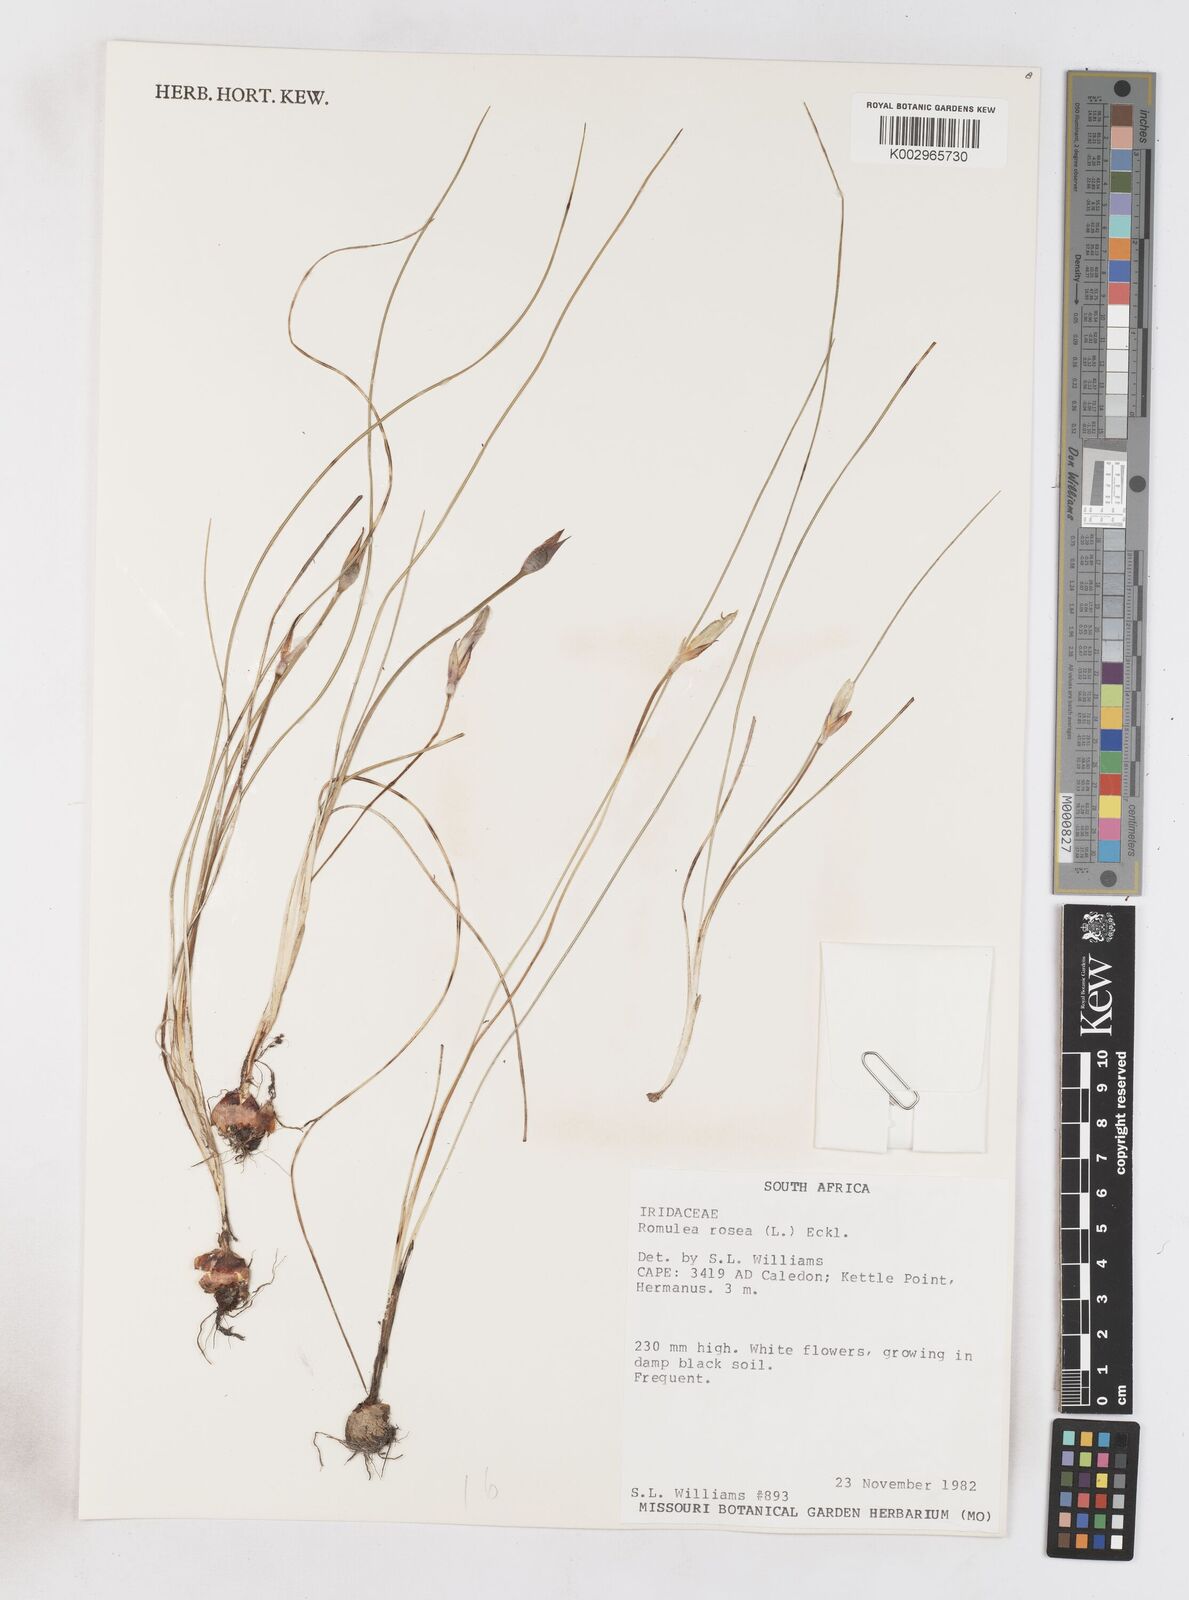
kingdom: Plantae
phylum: Tracheophyta
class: Liliopsida
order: Asparagales
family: Iridaceae
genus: Romulea
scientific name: Romulea rosea
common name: Oniongrass
